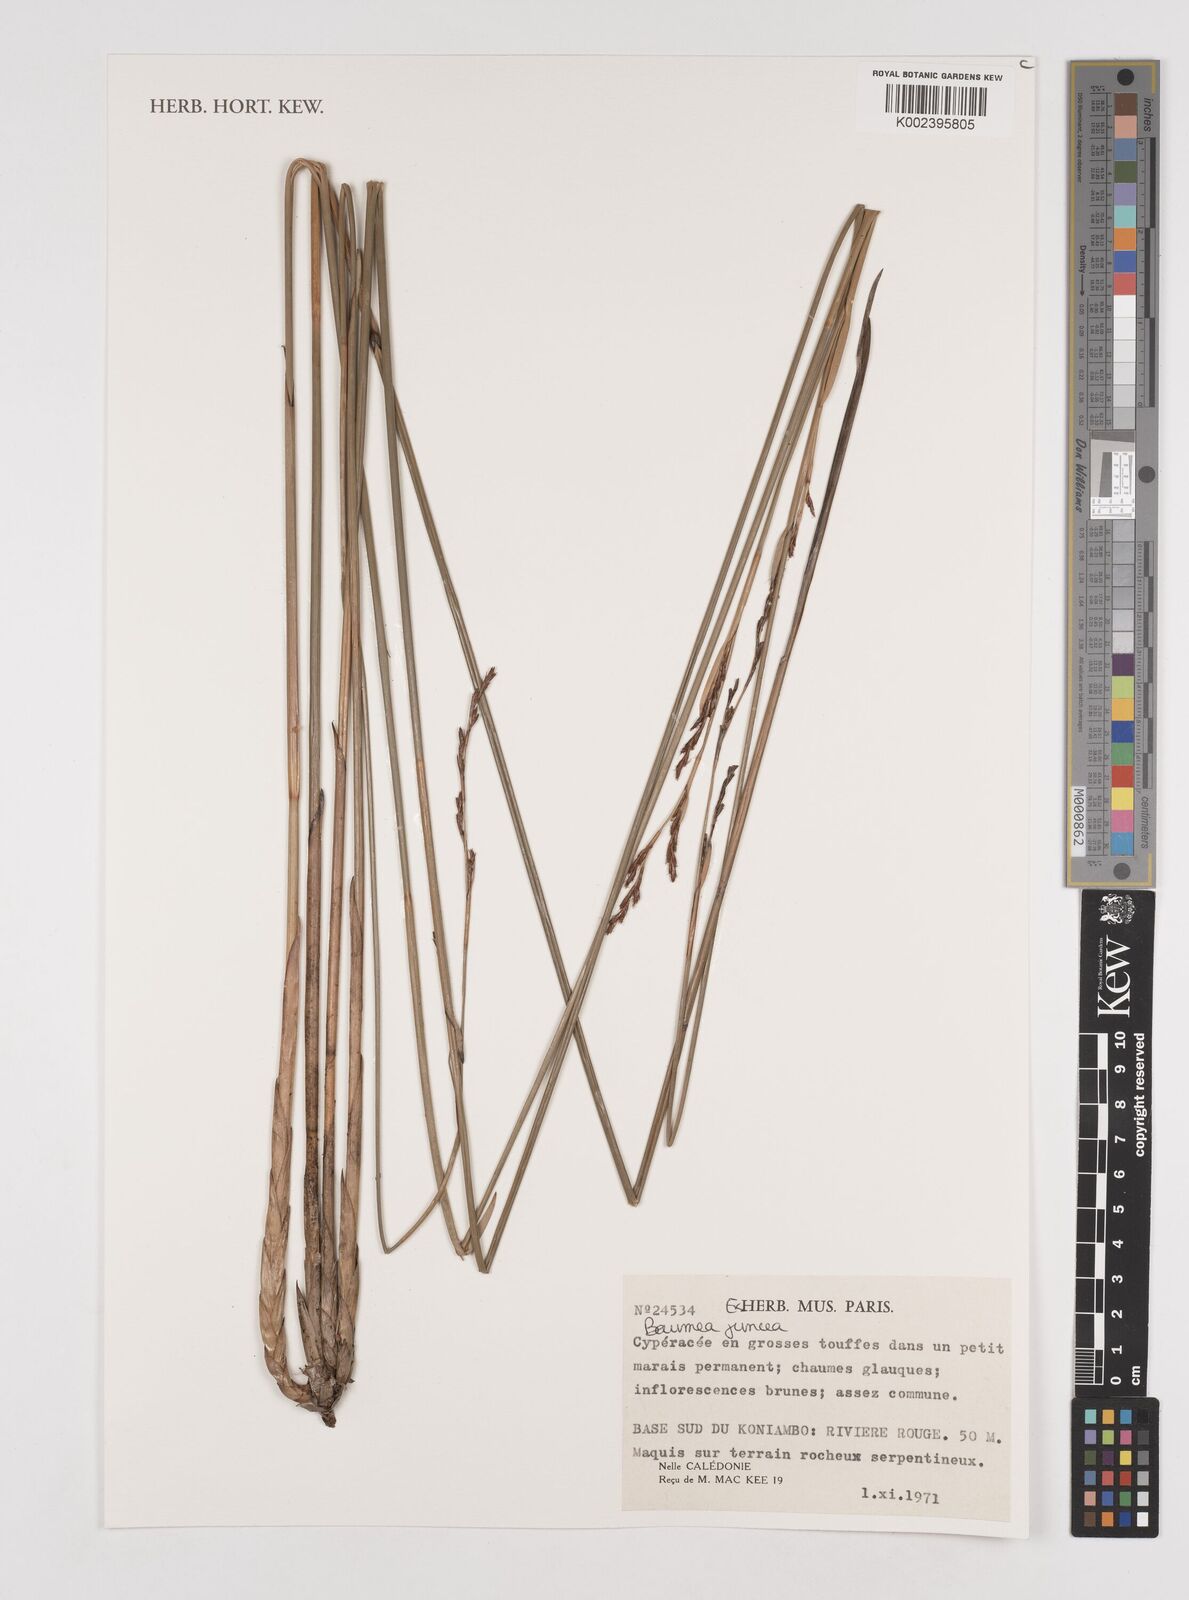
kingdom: Plantae
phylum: Tracheophyta
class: Liliopsida
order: Poales
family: Cyperaceae
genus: Machaerina
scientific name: Machaerina juncea
